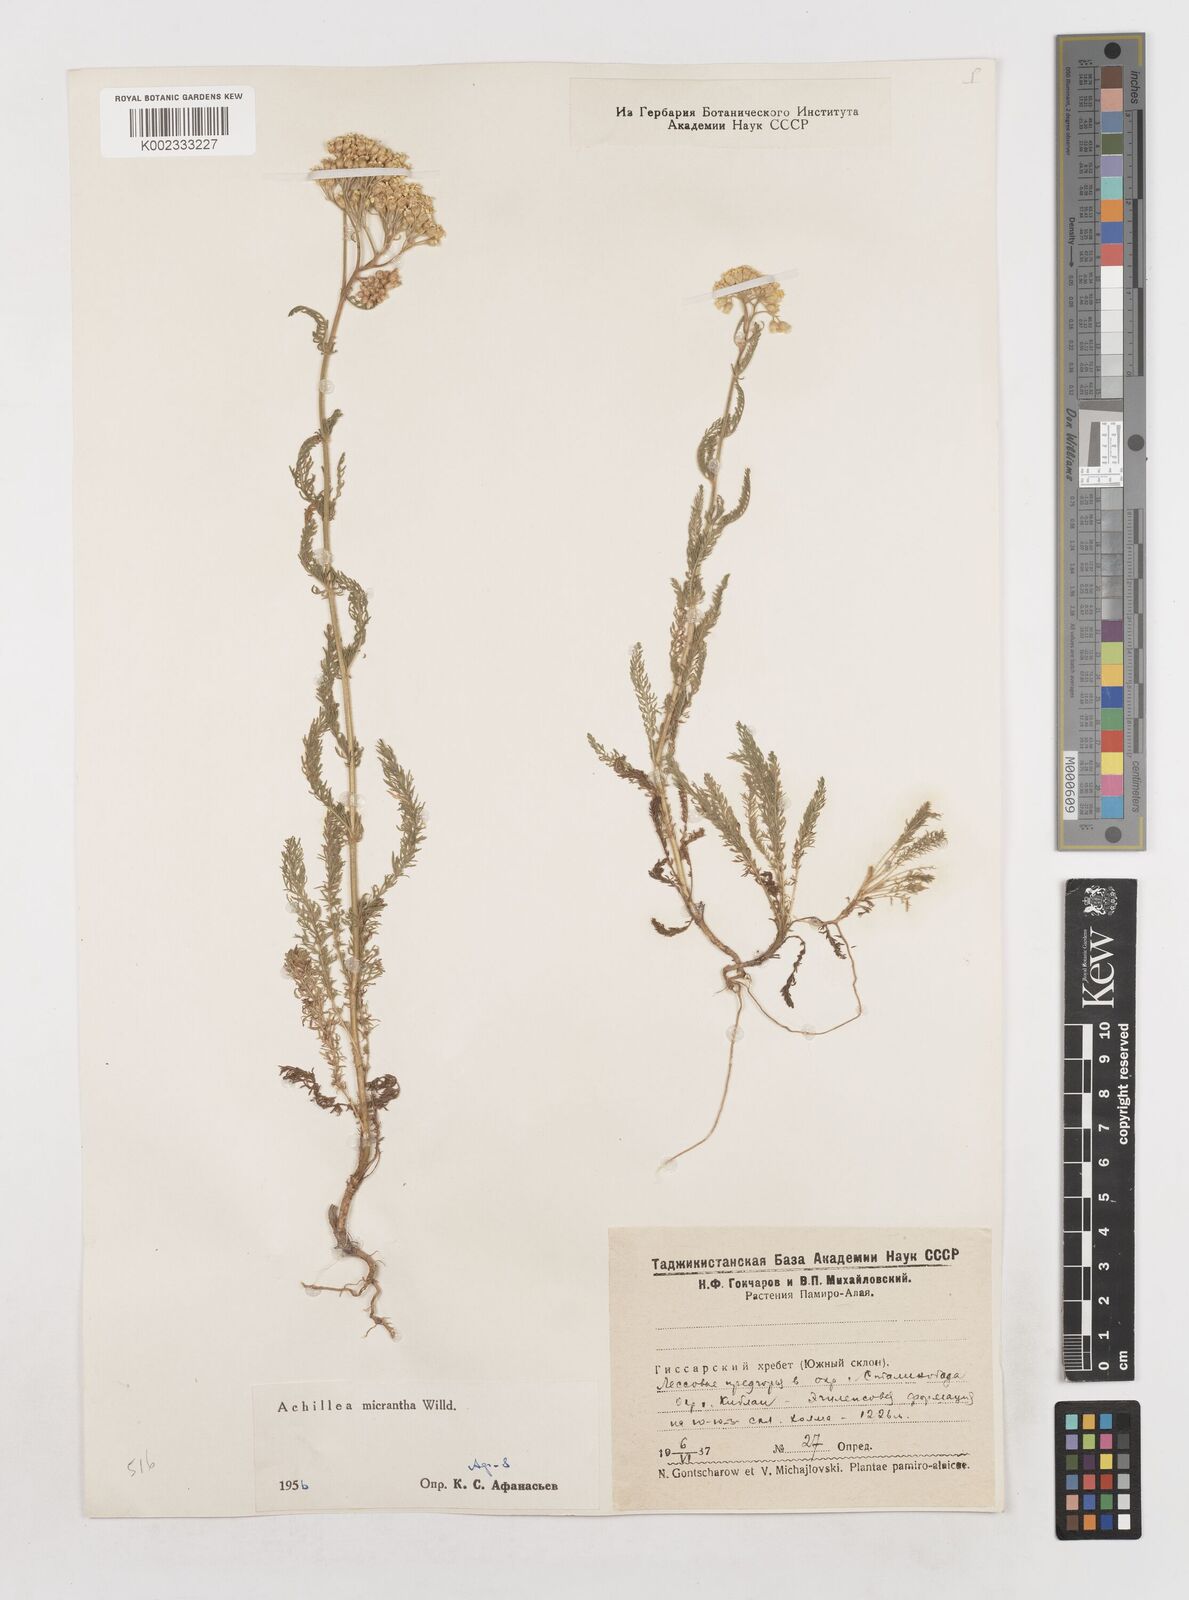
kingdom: Plantae
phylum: Tracheophyta
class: Magnoliopsida
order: Asterales
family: Asteraceae
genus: Achillea
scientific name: Achillea micrantha
